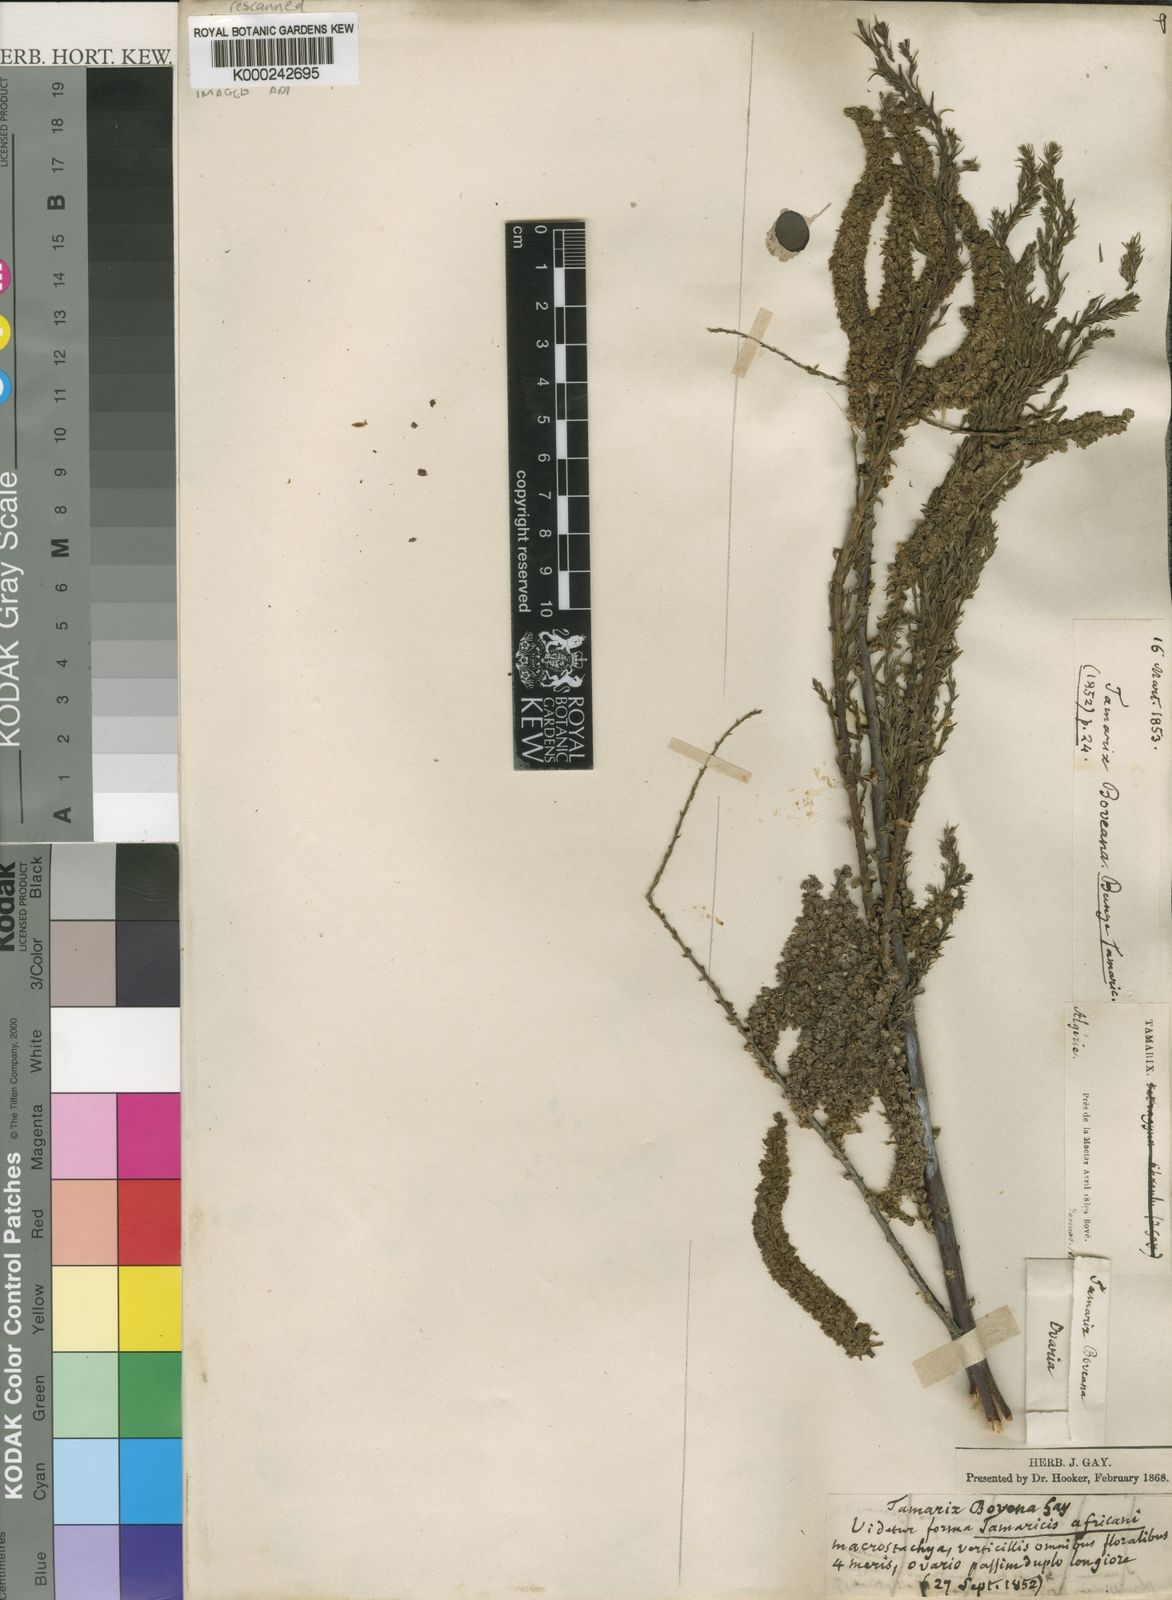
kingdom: Plantae
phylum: Tracheophyta
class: Magnoliopsida
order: Caryophyllales
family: Tamaricaceae
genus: Tamarix
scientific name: Tamarix
